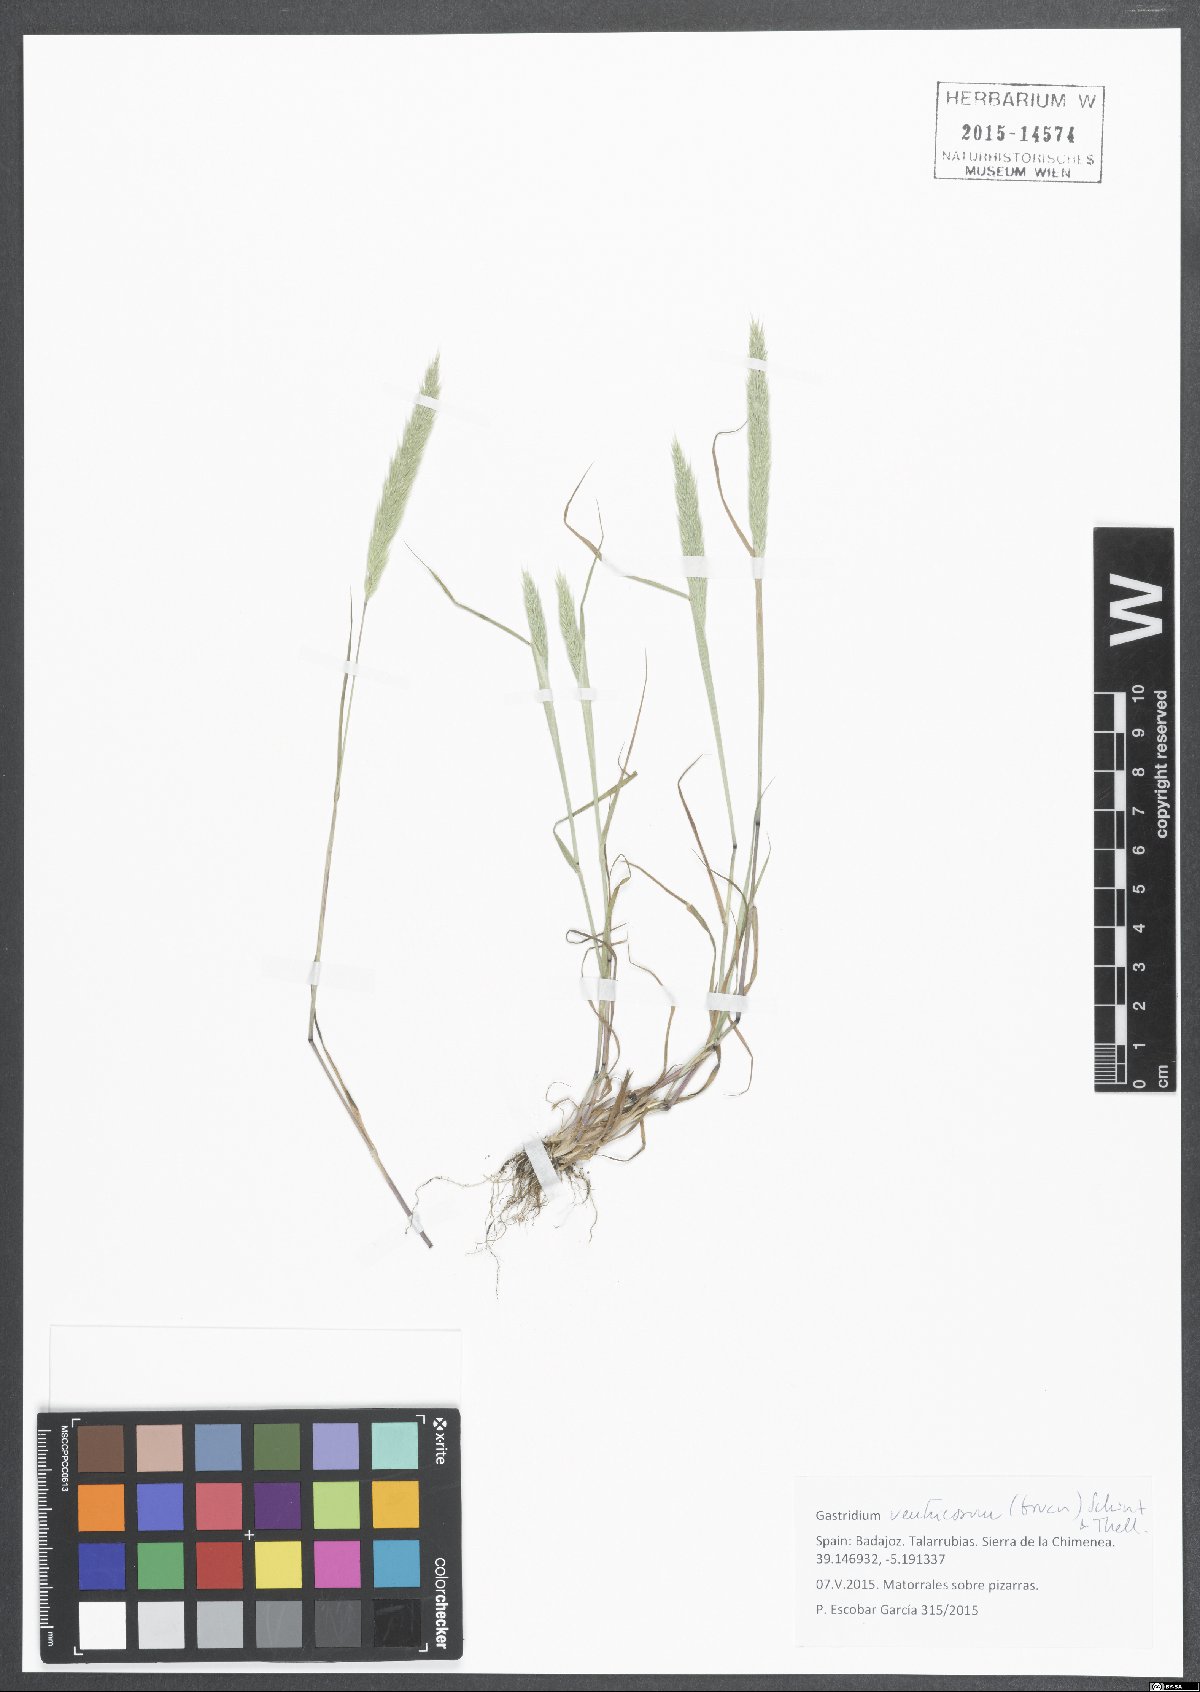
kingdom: Plantae
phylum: Tracheophyta
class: Liliopsida
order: Poales
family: Poaceae
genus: Gastridium
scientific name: Gastridium ventricosum
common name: Nit-grass
